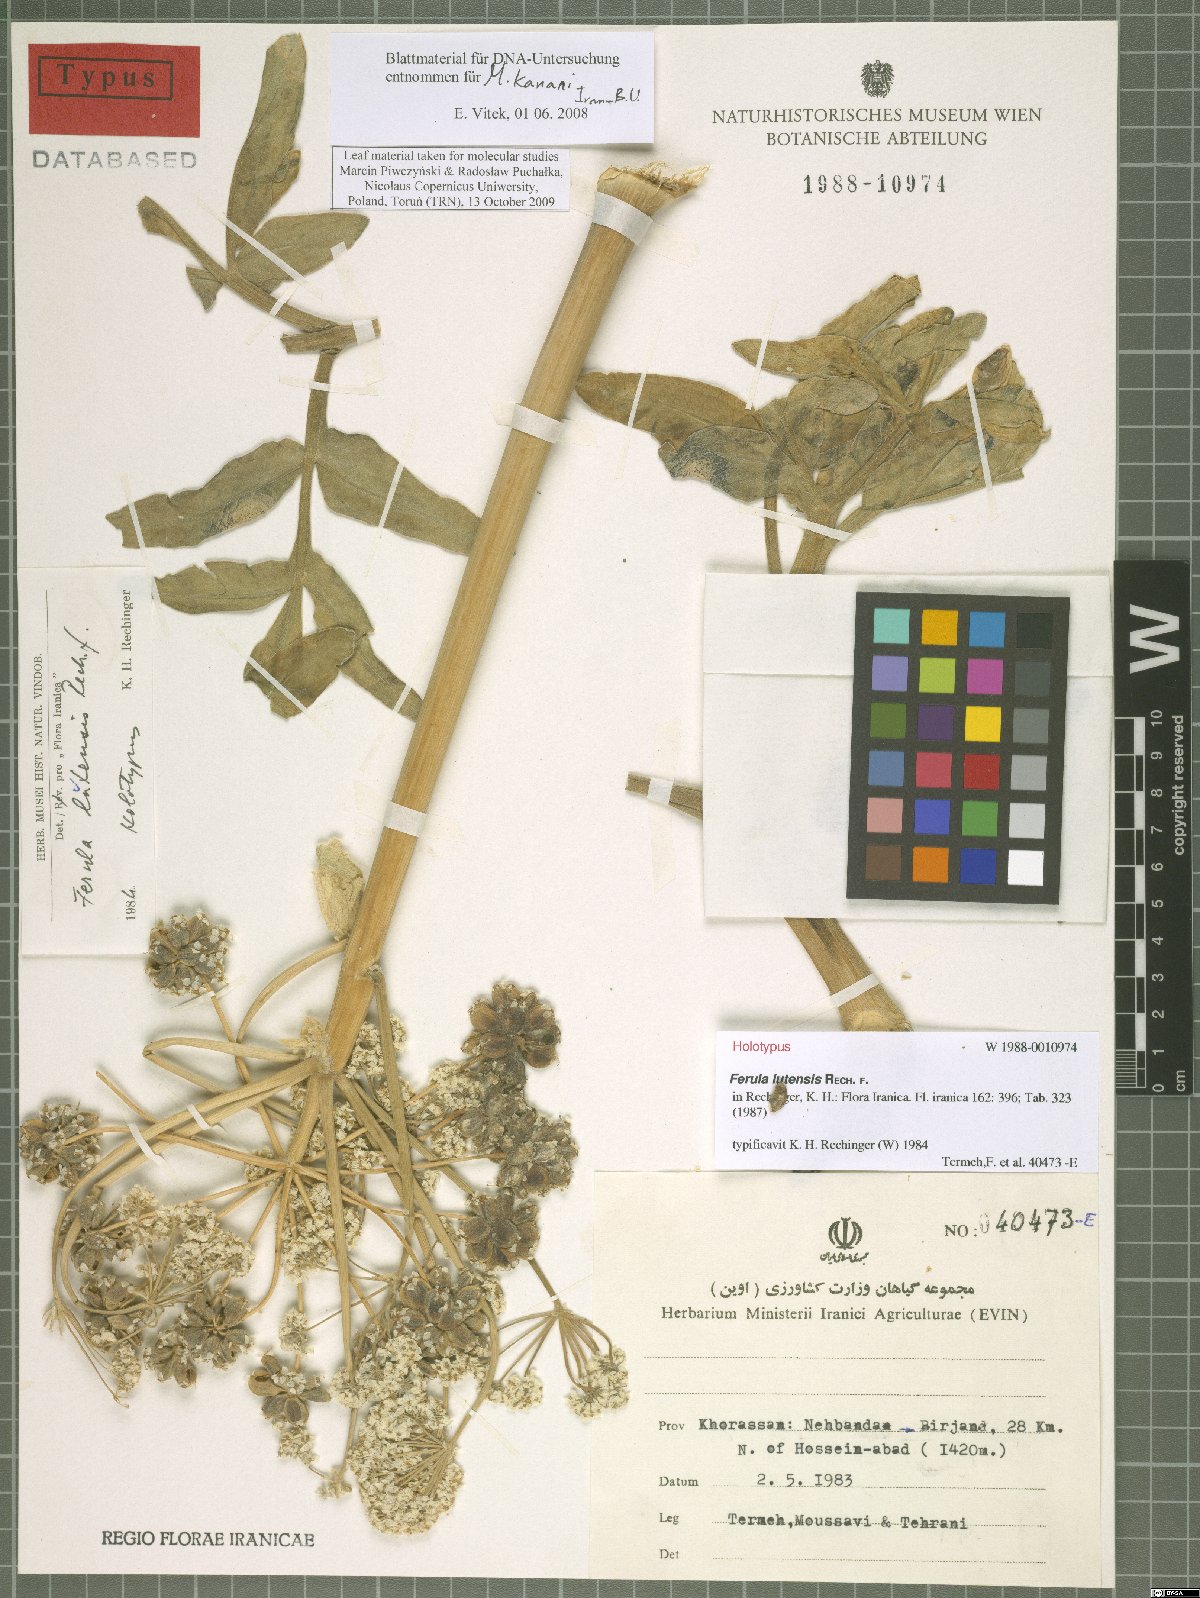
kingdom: Plantae
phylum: Tracheophyta
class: Magnoliopsida
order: Apiales
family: Apiaceae
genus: Ferula
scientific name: Ferula lutensis
